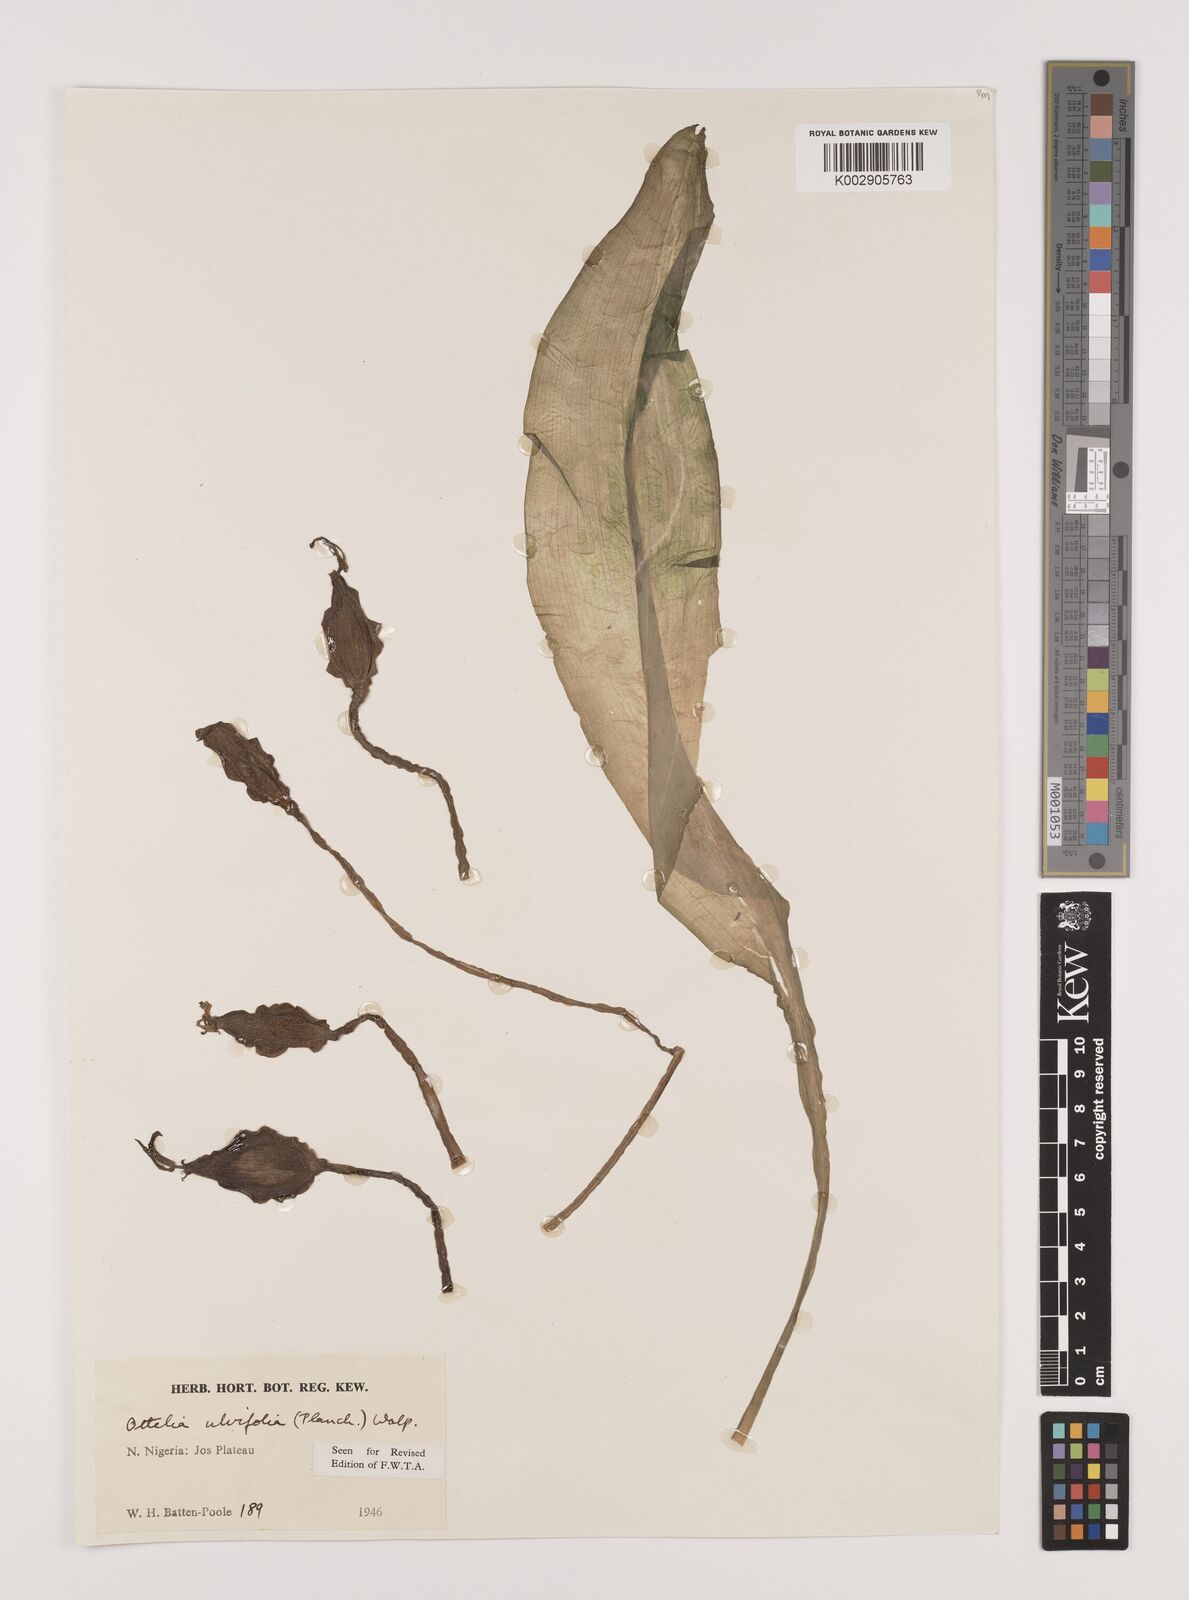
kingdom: Plantae
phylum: Tracheophyta
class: Liliopsida
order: Alismatales
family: Hydrocharitaceae
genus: Ottelia
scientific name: Ottelia ulvifolia
